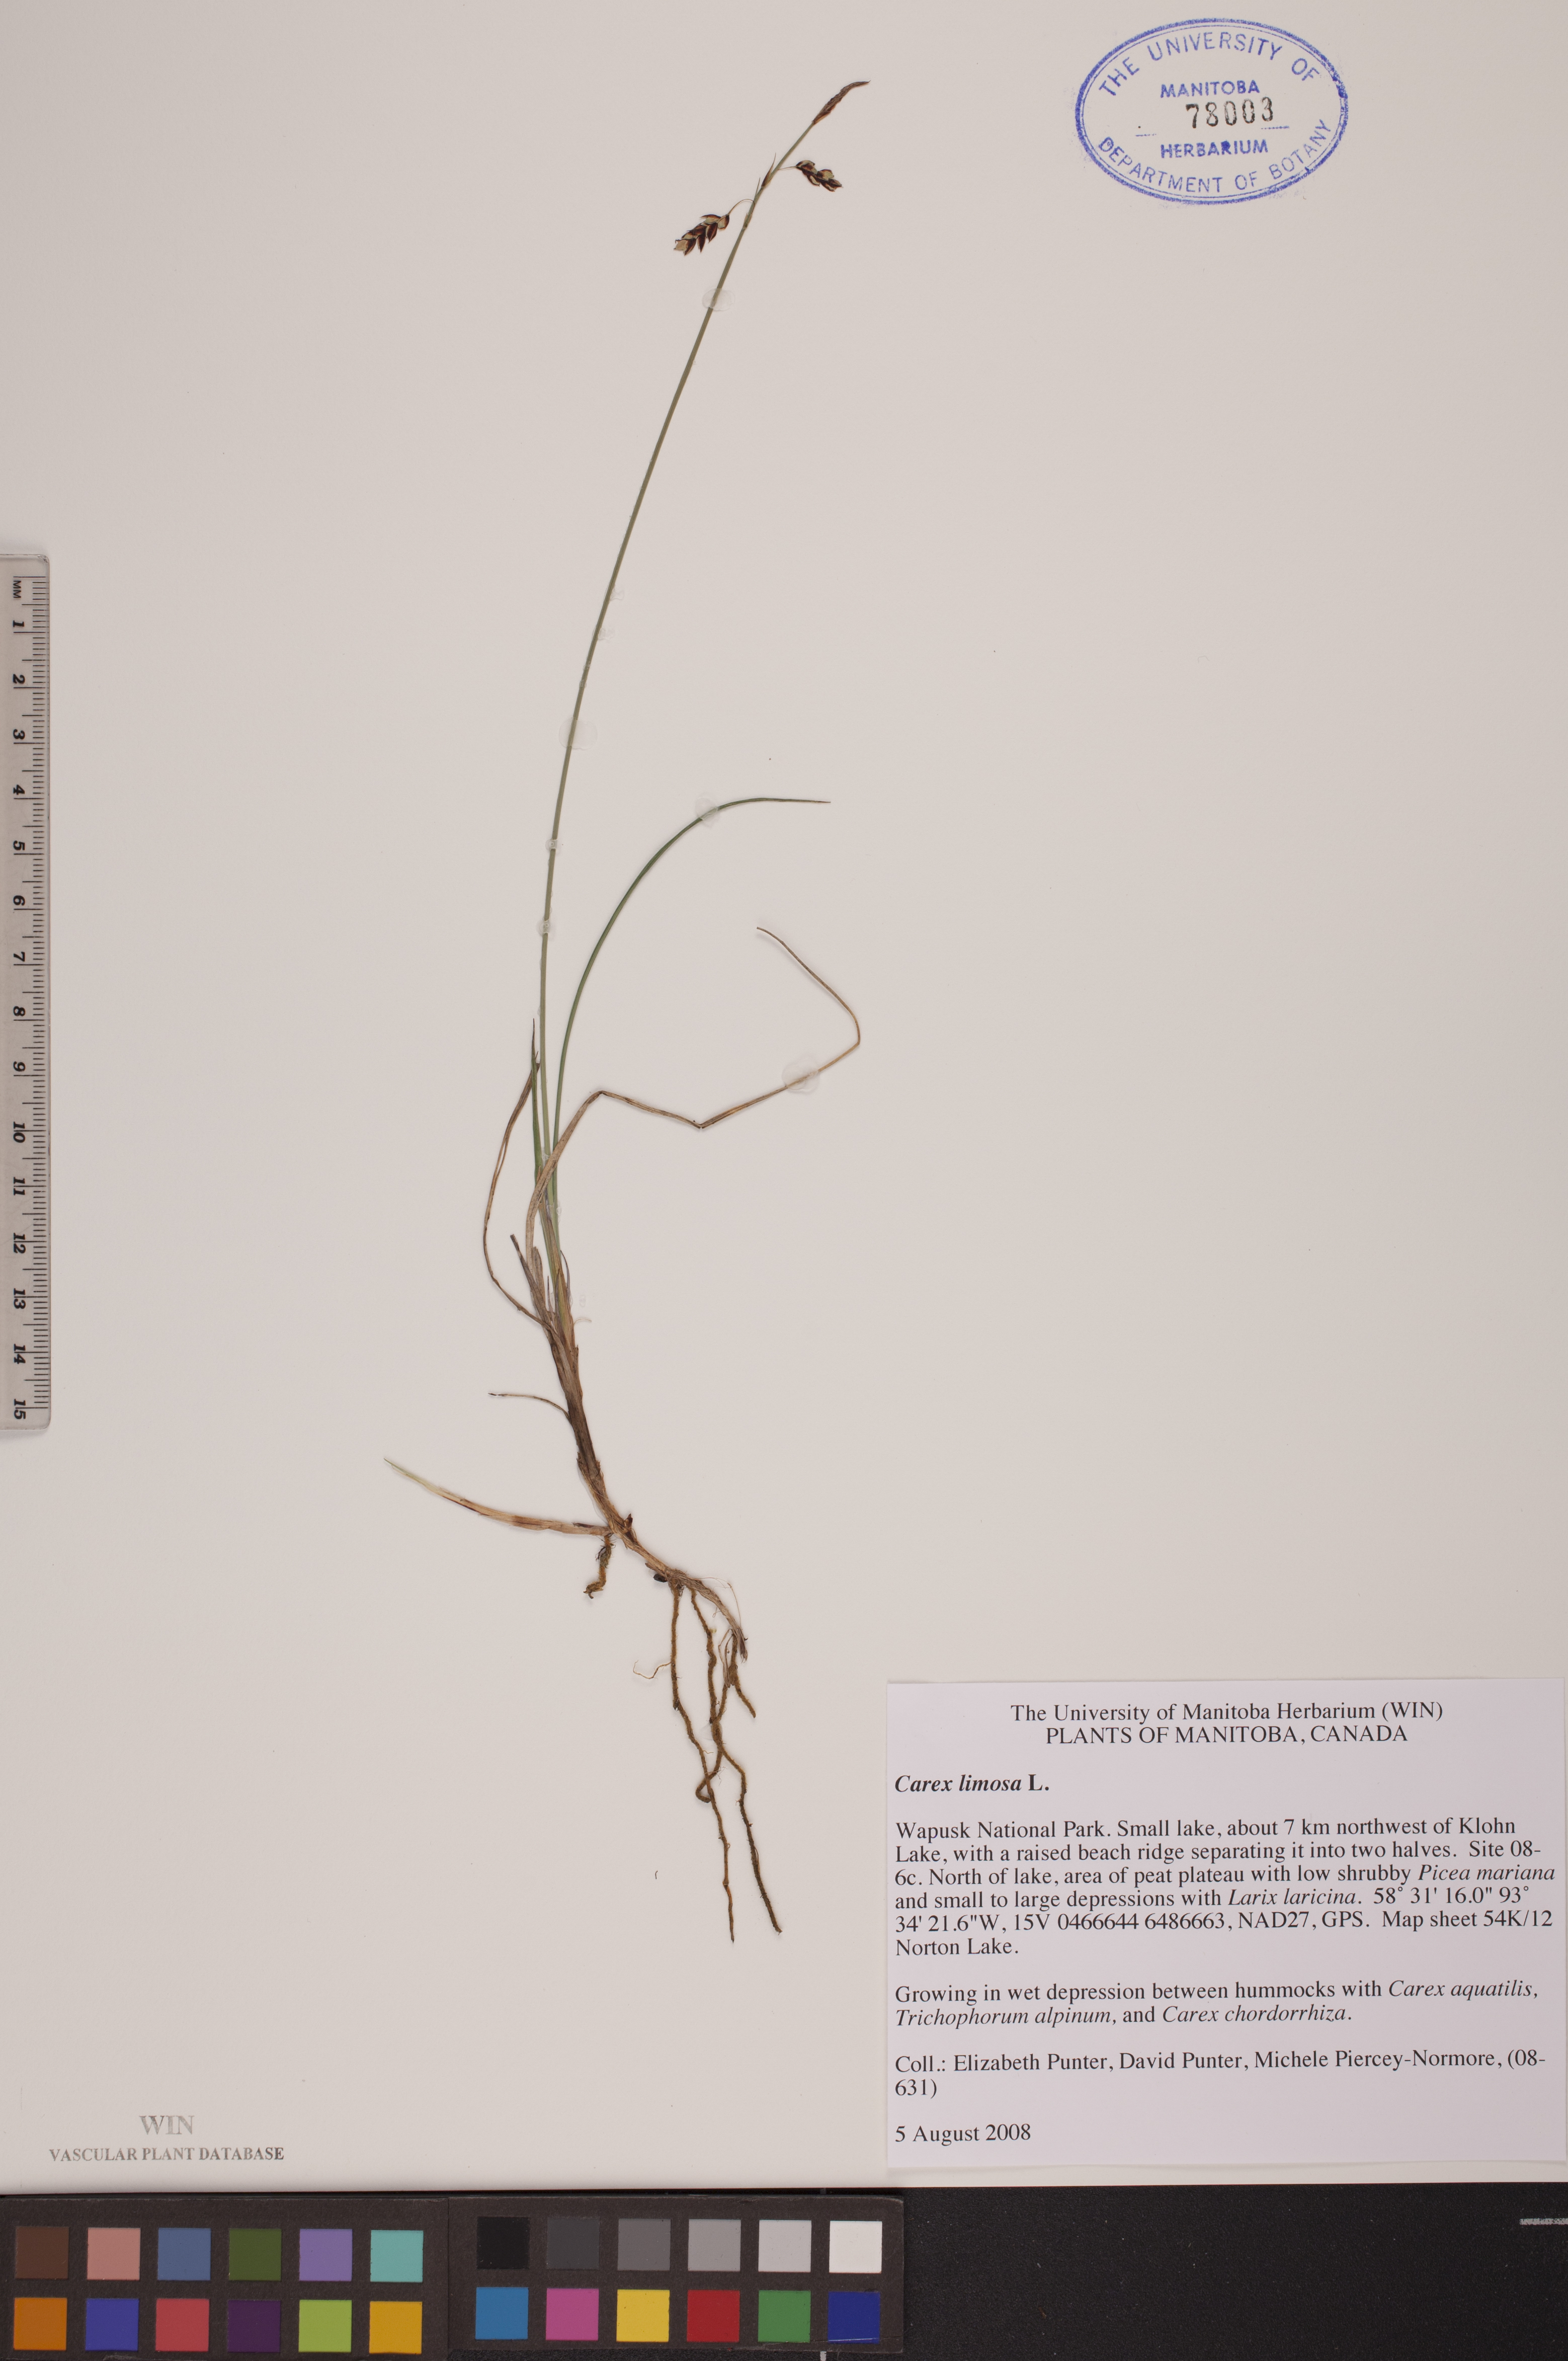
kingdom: Plantae
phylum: Tracheophyta
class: Liliopsida
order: Poales
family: Cyperaceae
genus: Carex
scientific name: Carex limosa
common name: Bog sedge
